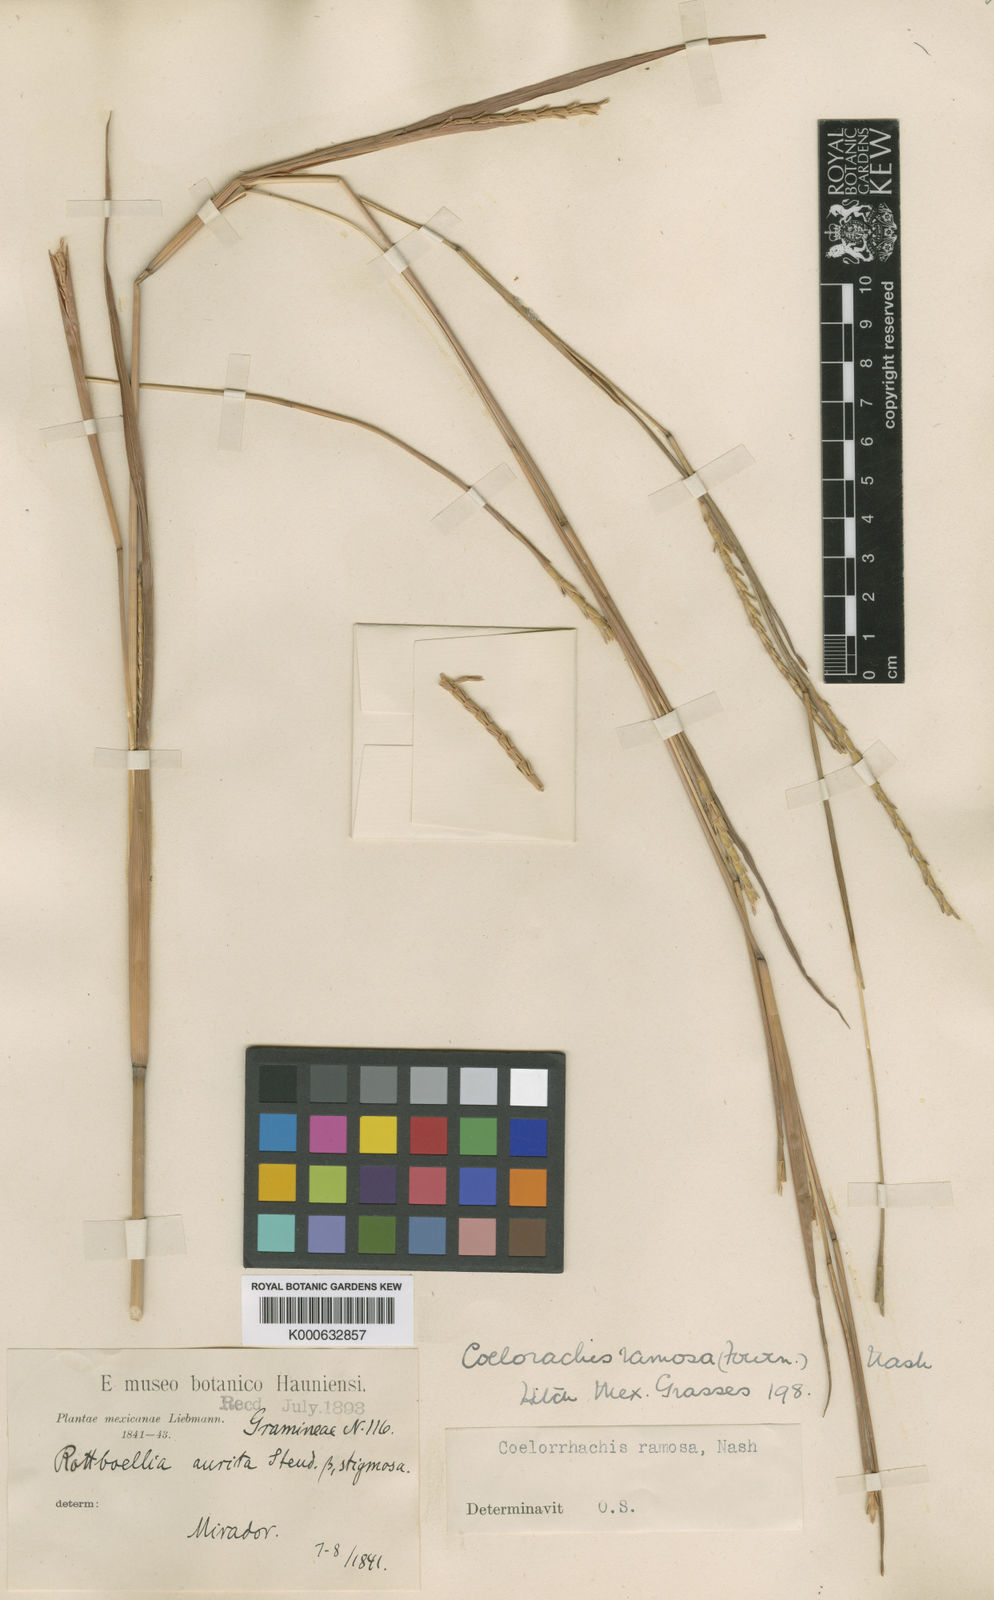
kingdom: Plantae
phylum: Tracheophyta
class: Liliopsida
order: Poales
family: Poaceae
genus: Rottboellia
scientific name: Rottboellia Coelorachis ramosa
